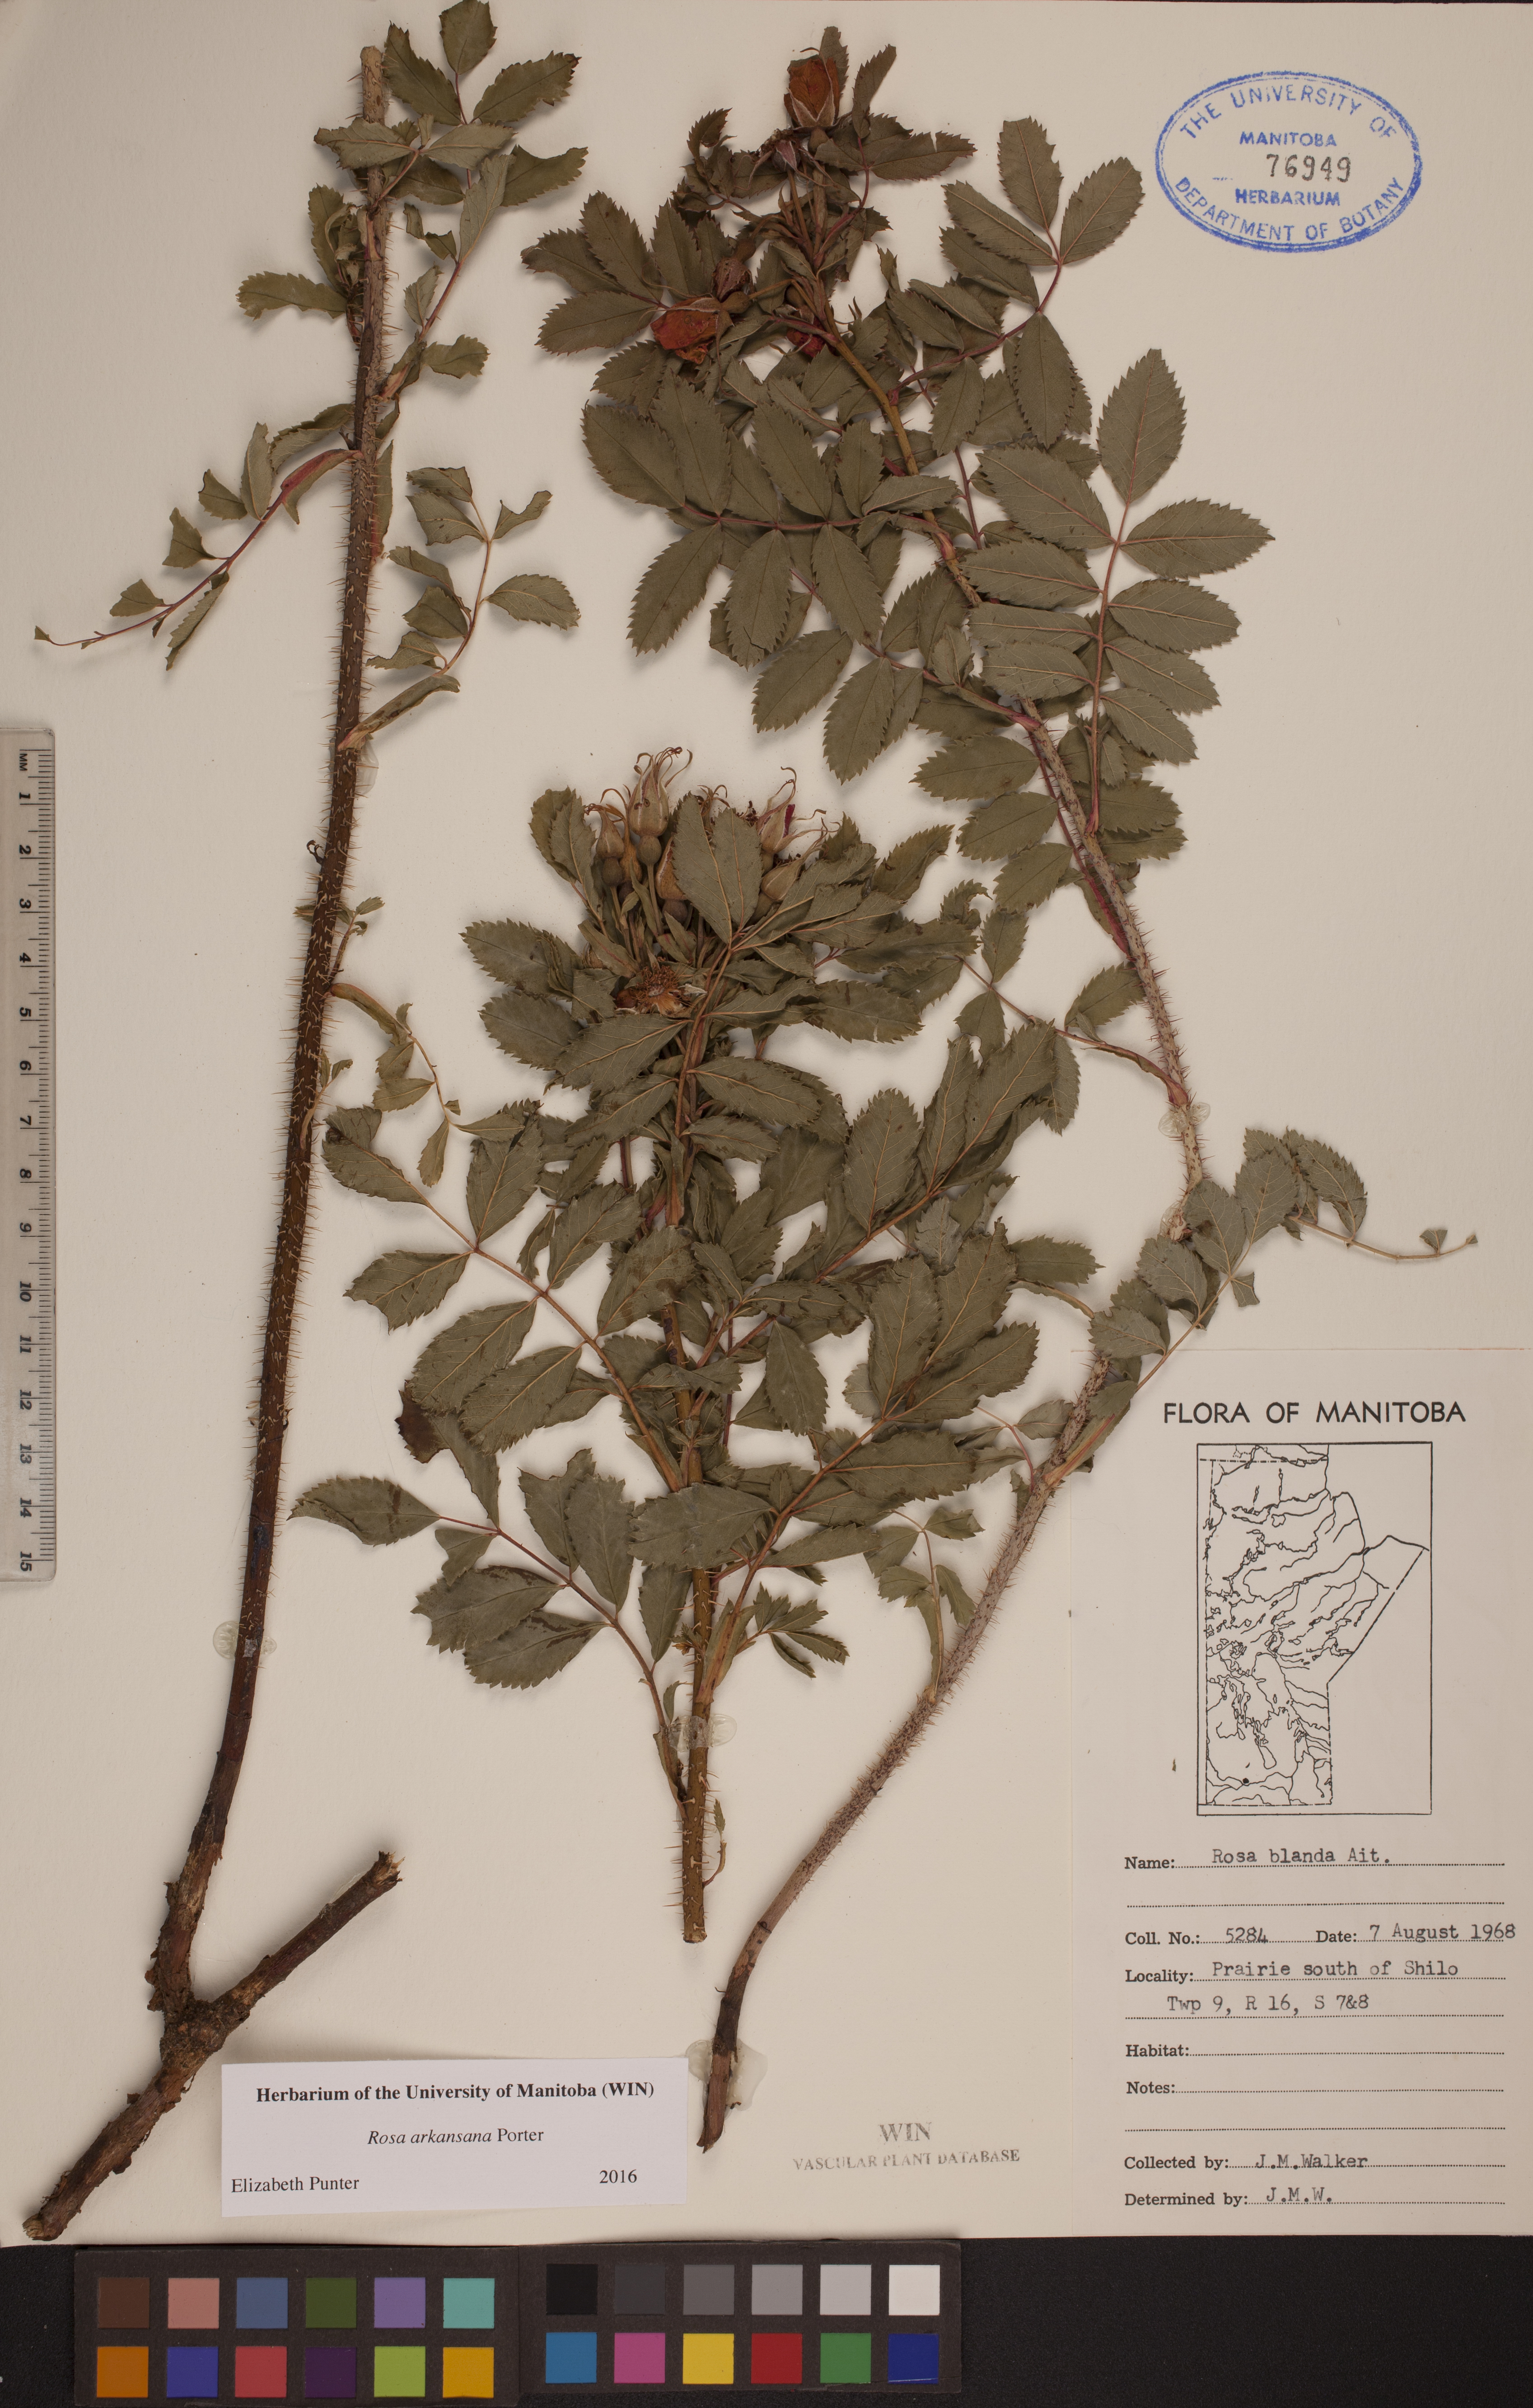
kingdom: Plantae
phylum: Tracheophyta
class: Magnoliopsida
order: Rosales
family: Rosaceae
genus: Rosa
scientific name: Rosa arkansana
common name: Prairie rose
